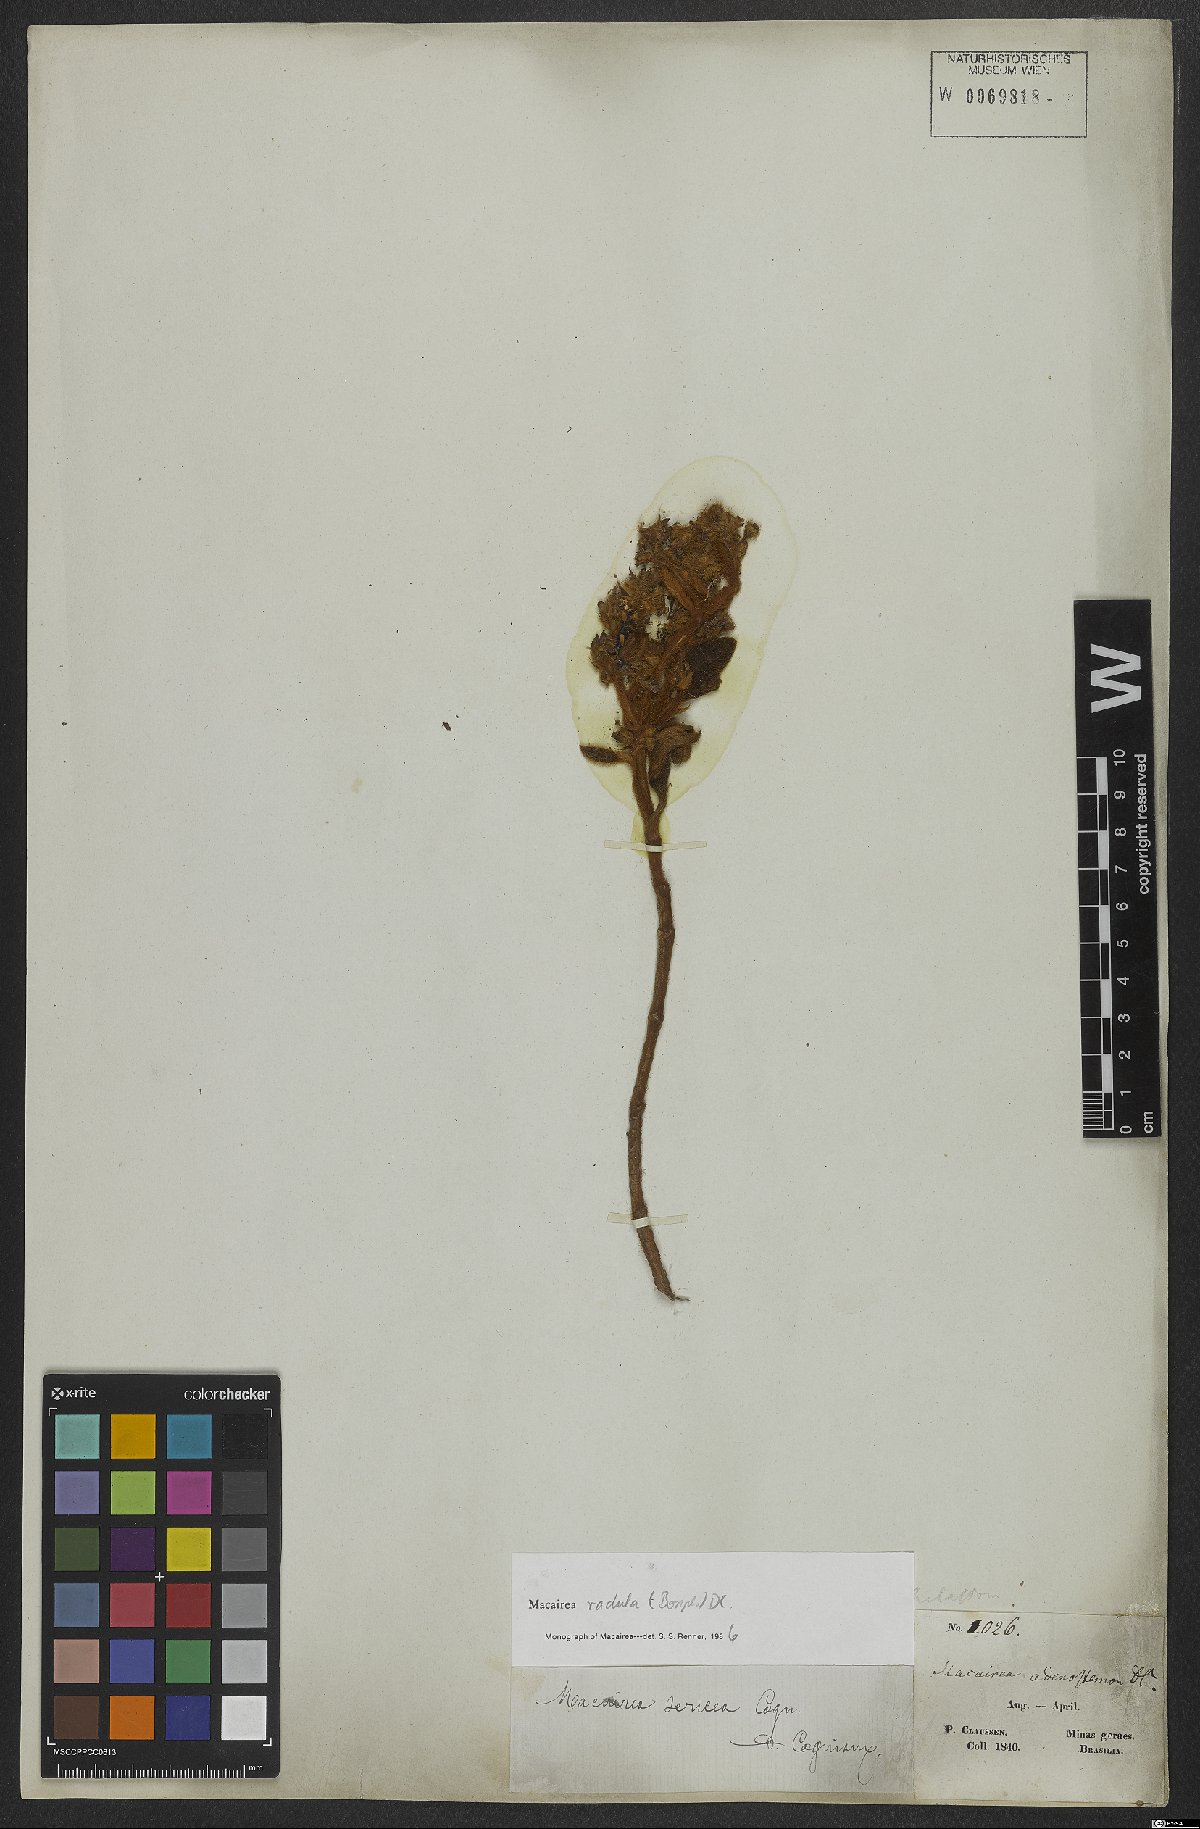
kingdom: Plantae
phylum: Tracheophyta
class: Magnoliopsida
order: Myrtales
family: Melastomataceae
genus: Macairea
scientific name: Macairea radula
